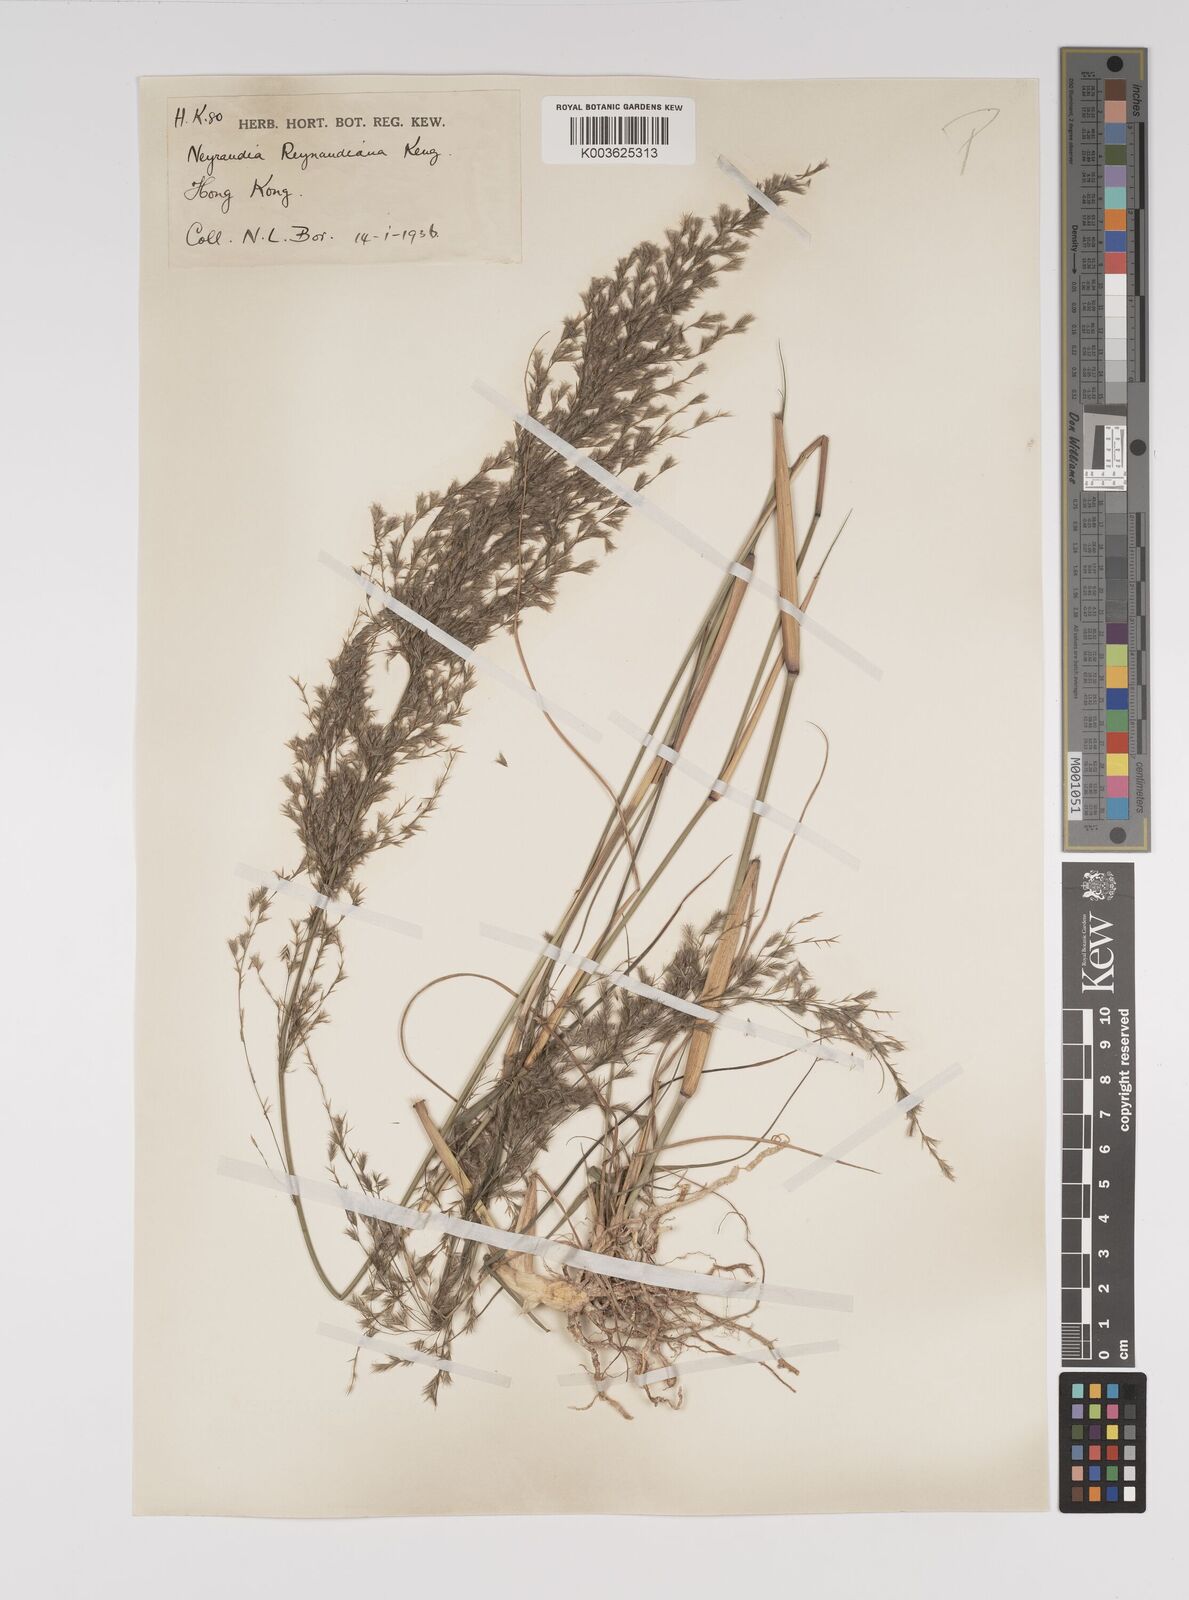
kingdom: Plantae
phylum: Tracheophyta
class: Liliopsida
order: Poales
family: Poaceae
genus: Neyraudia
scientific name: Neyraudia reynaudiana
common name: Silkreed
